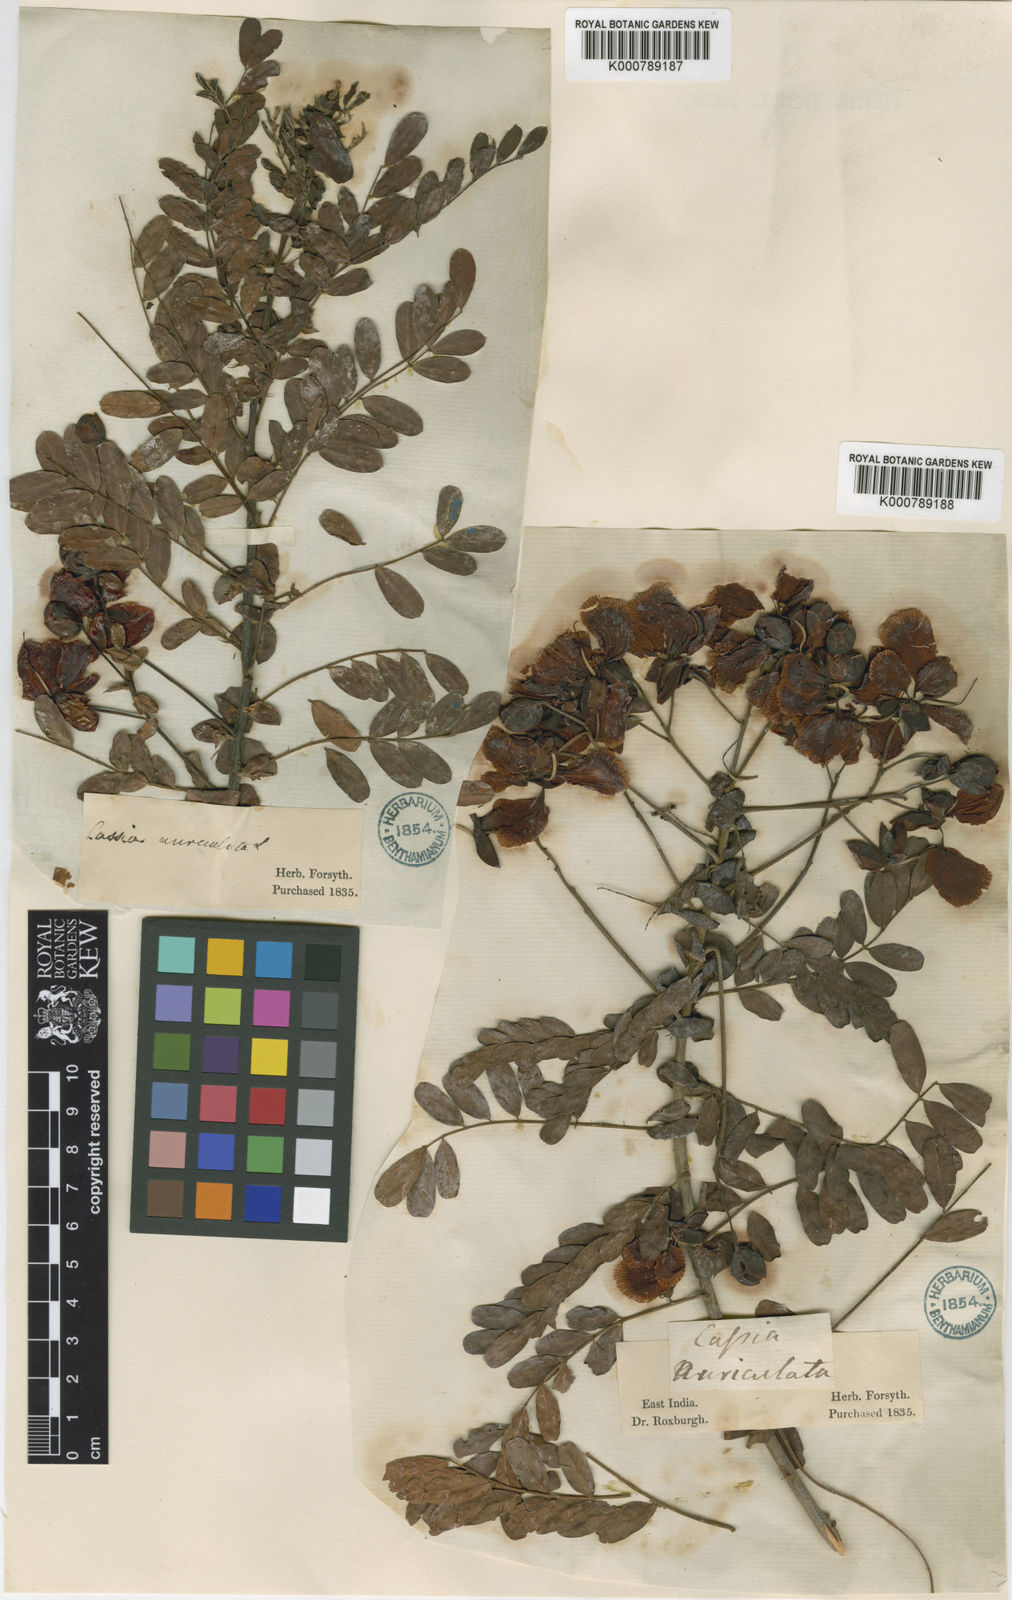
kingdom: Plantae
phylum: Tracheophyta
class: Magnoliopsida
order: Fabales
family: Fabaceae
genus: Senna
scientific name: Senna auriculata
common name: Tanner's cassia
